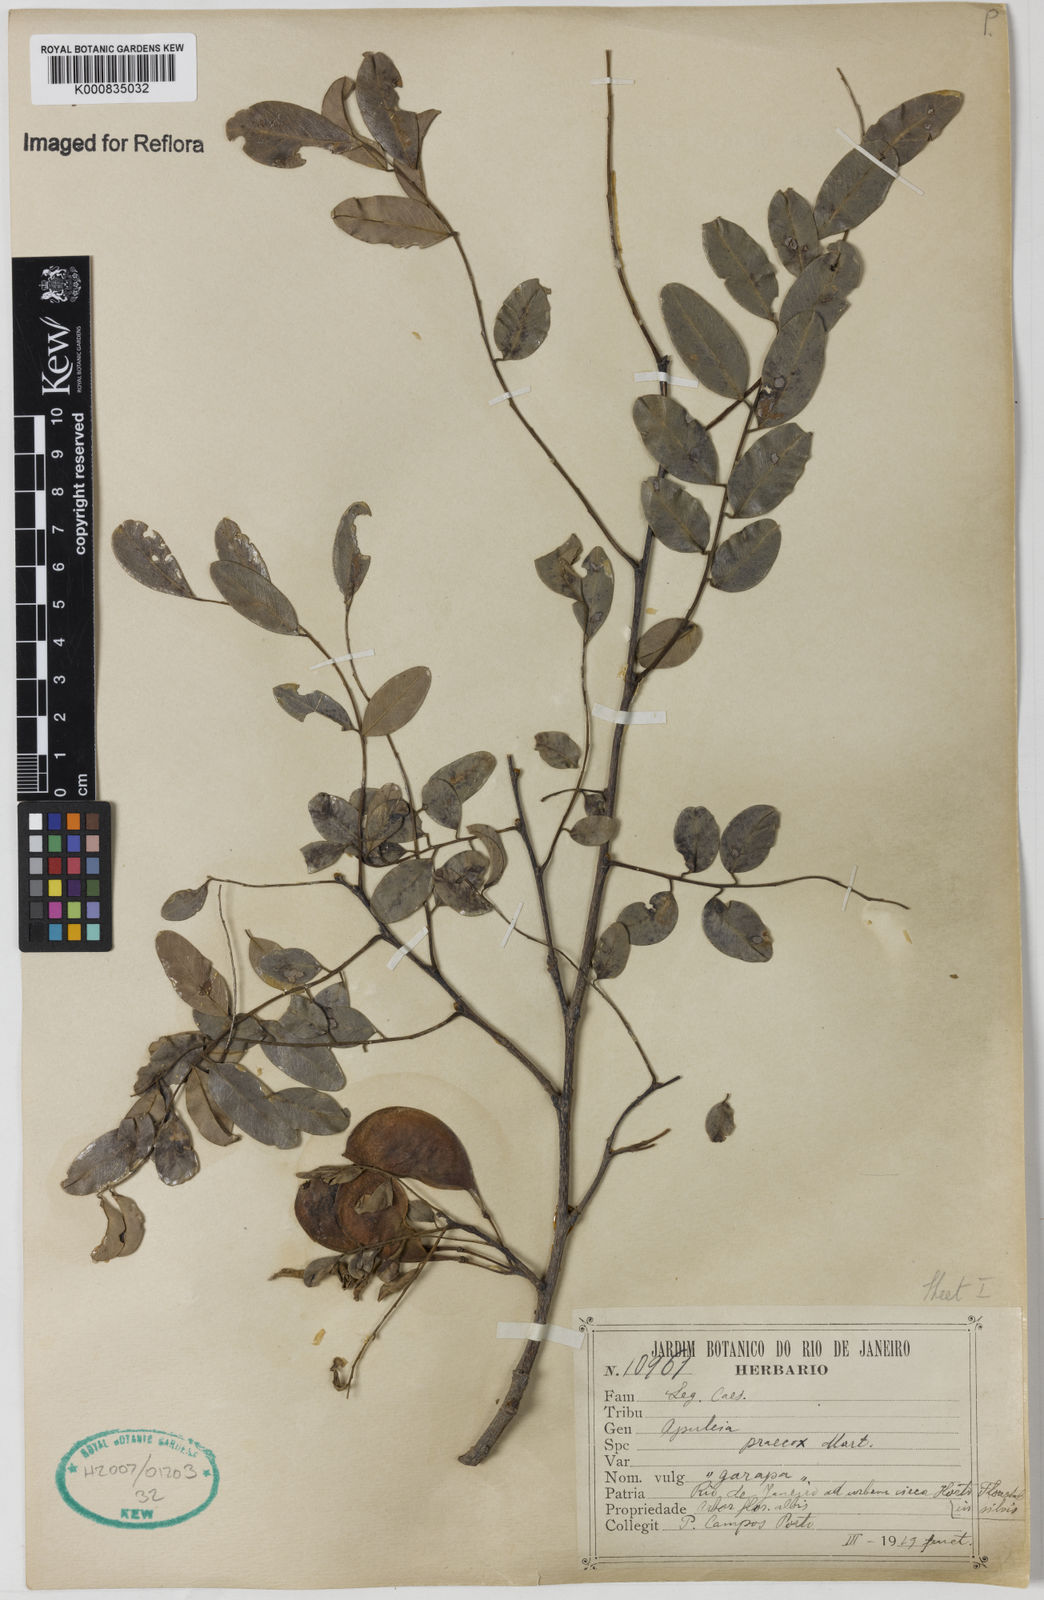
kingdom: Plantae
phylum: Tracheophyta
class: Magnoliopsida
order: Fabales
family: Fabaceae
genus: Apuleia
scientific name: Apuleia leiocarpa
